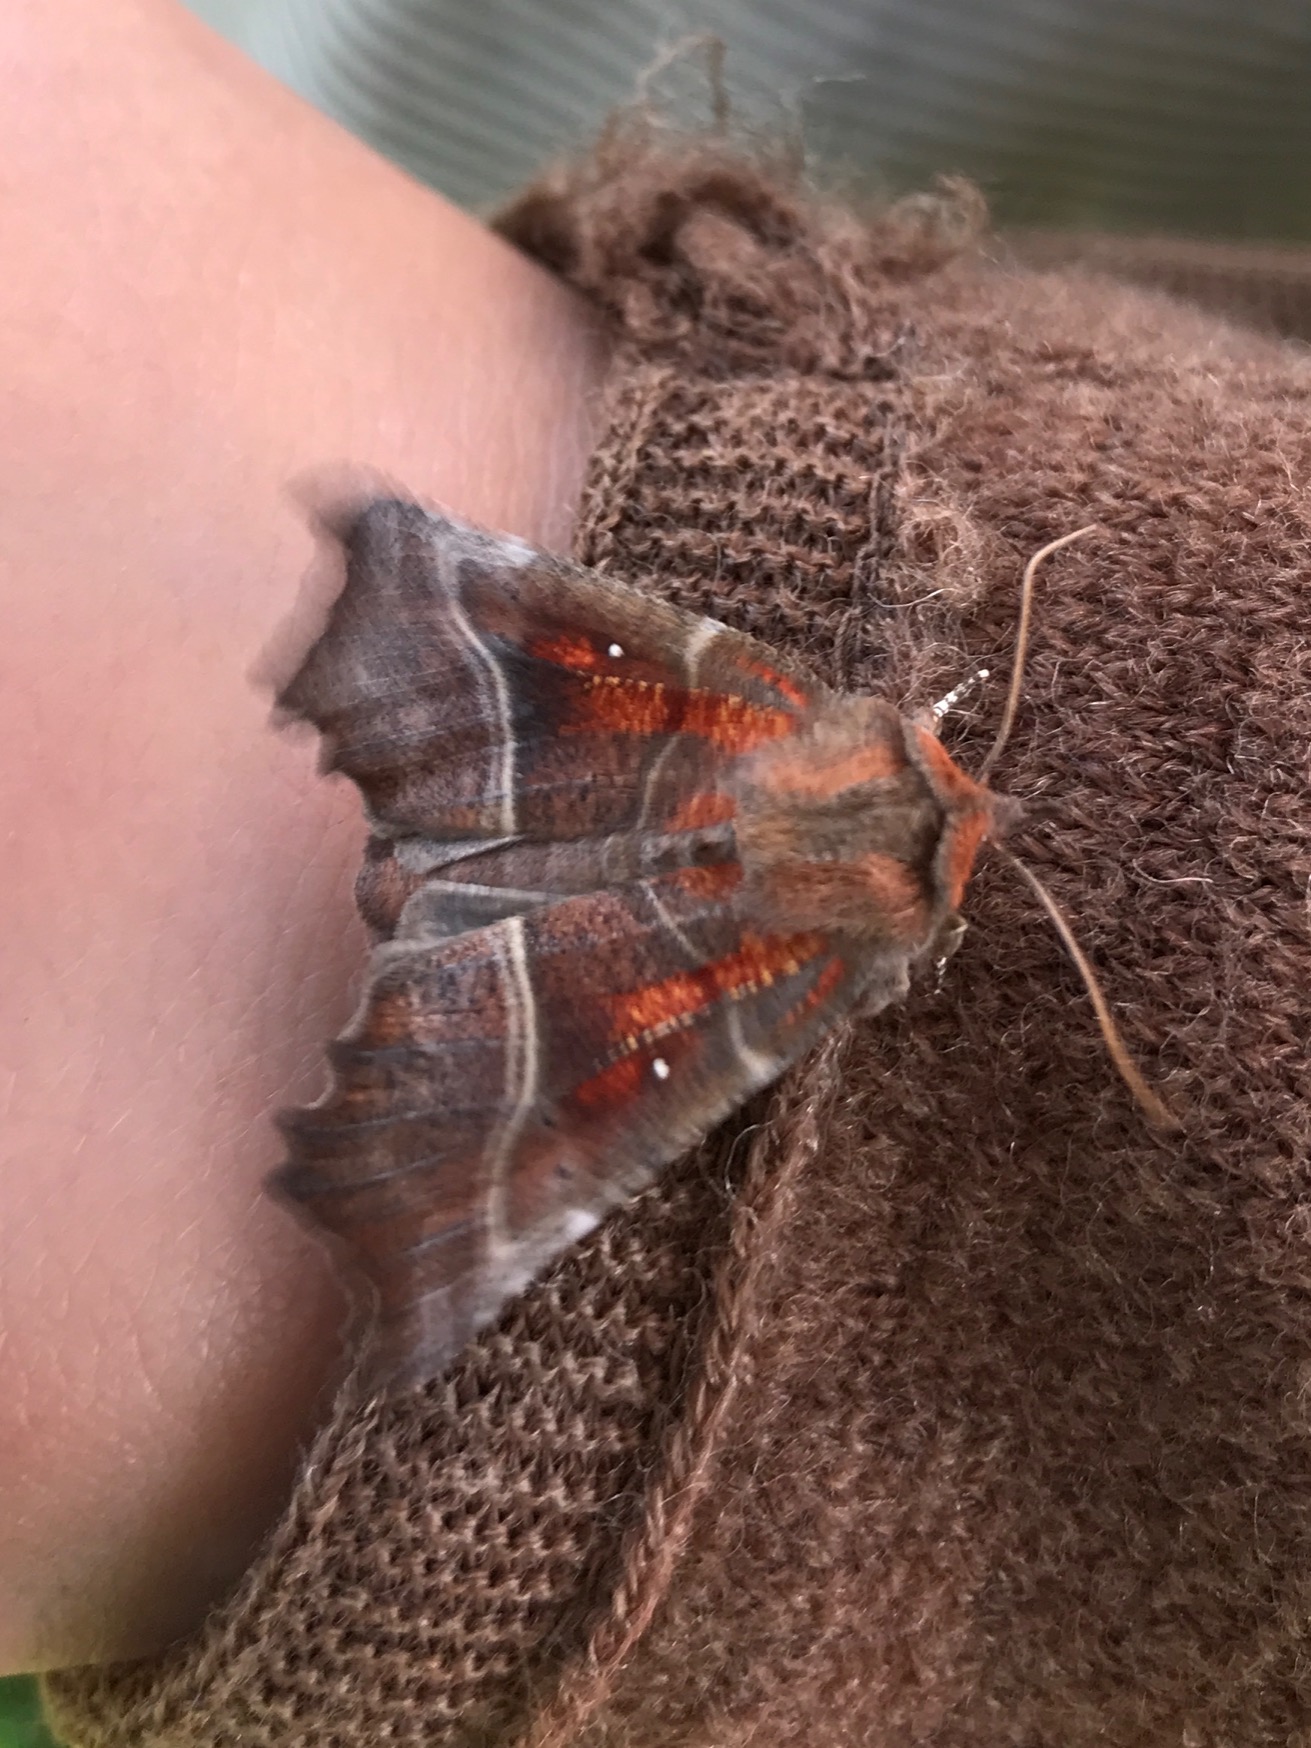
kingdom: Animalia
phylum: Arthropoda
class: Insecta
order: Lepidoptera
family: Erebidae
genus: Scoliopteryx
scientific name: Scoliopteryx libatrix
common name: Husmoderugle
